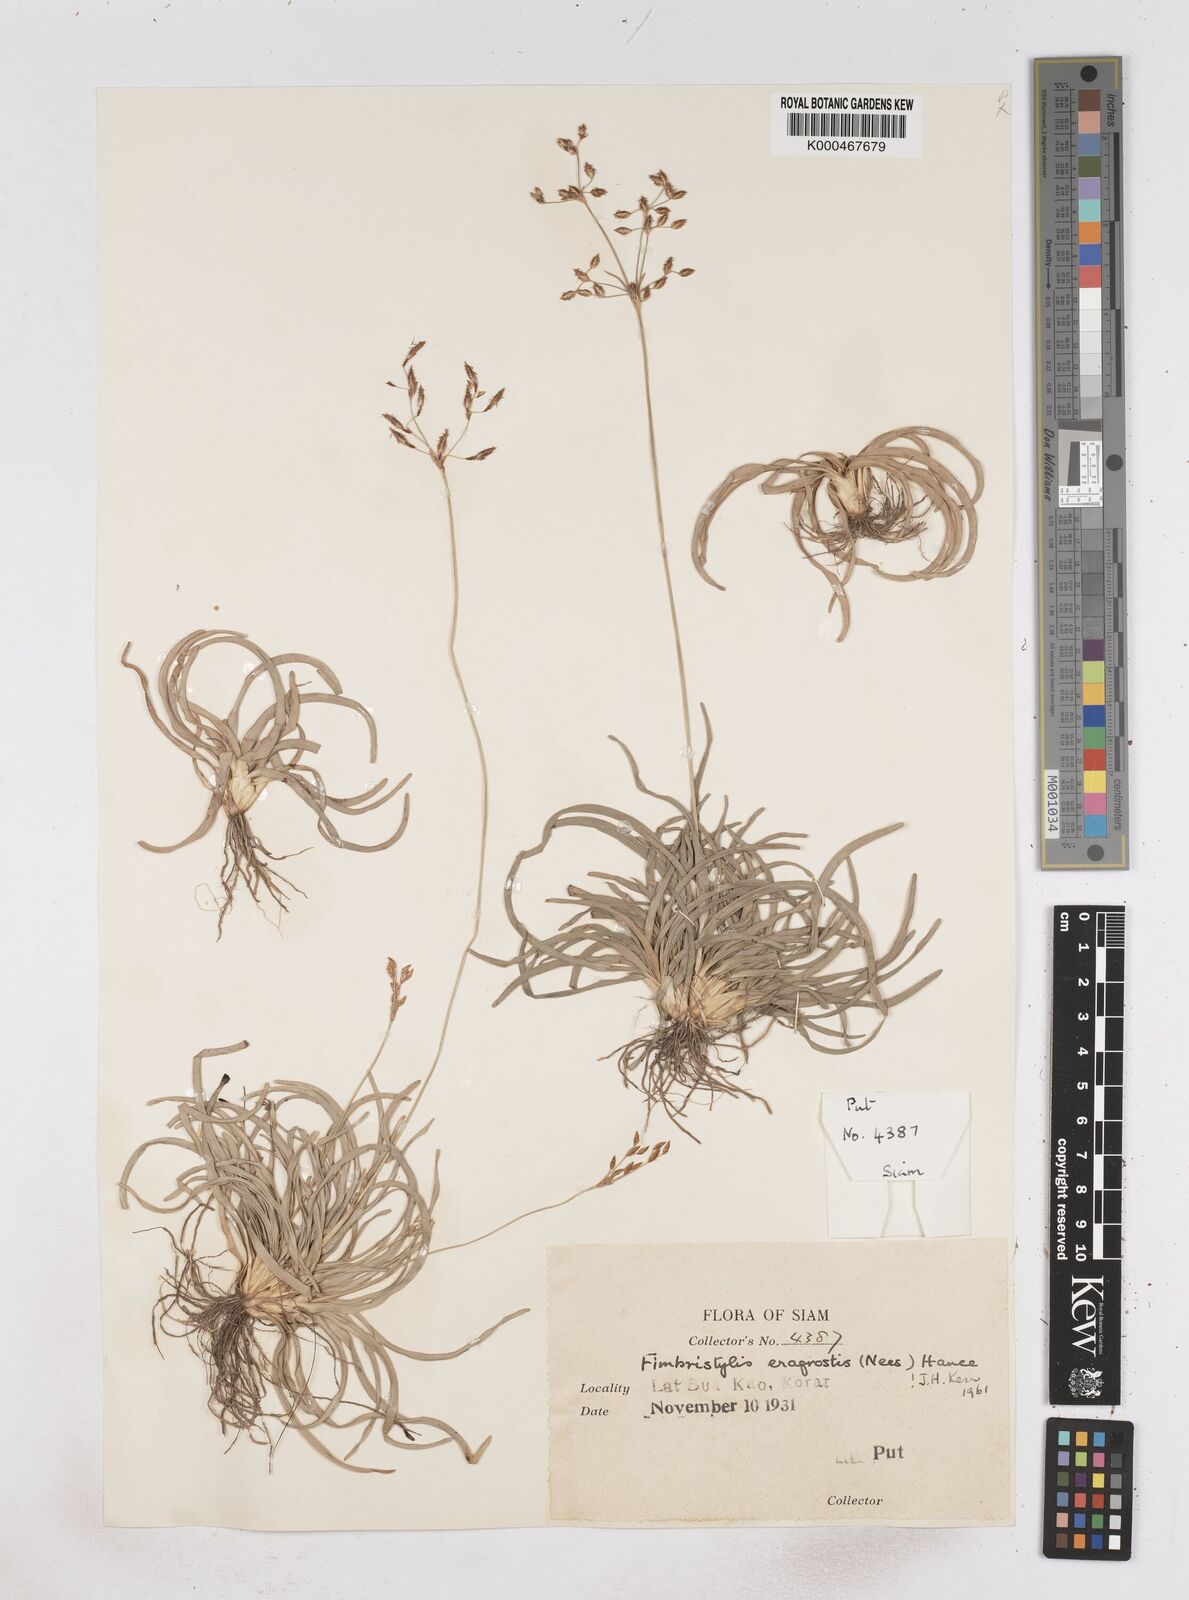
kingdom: Plantae
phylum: Tracheophyta
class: Liliopsida
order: Poales
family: Cyperaceae
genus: Fimbristylis
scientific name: Fimbristylis eragrostis
